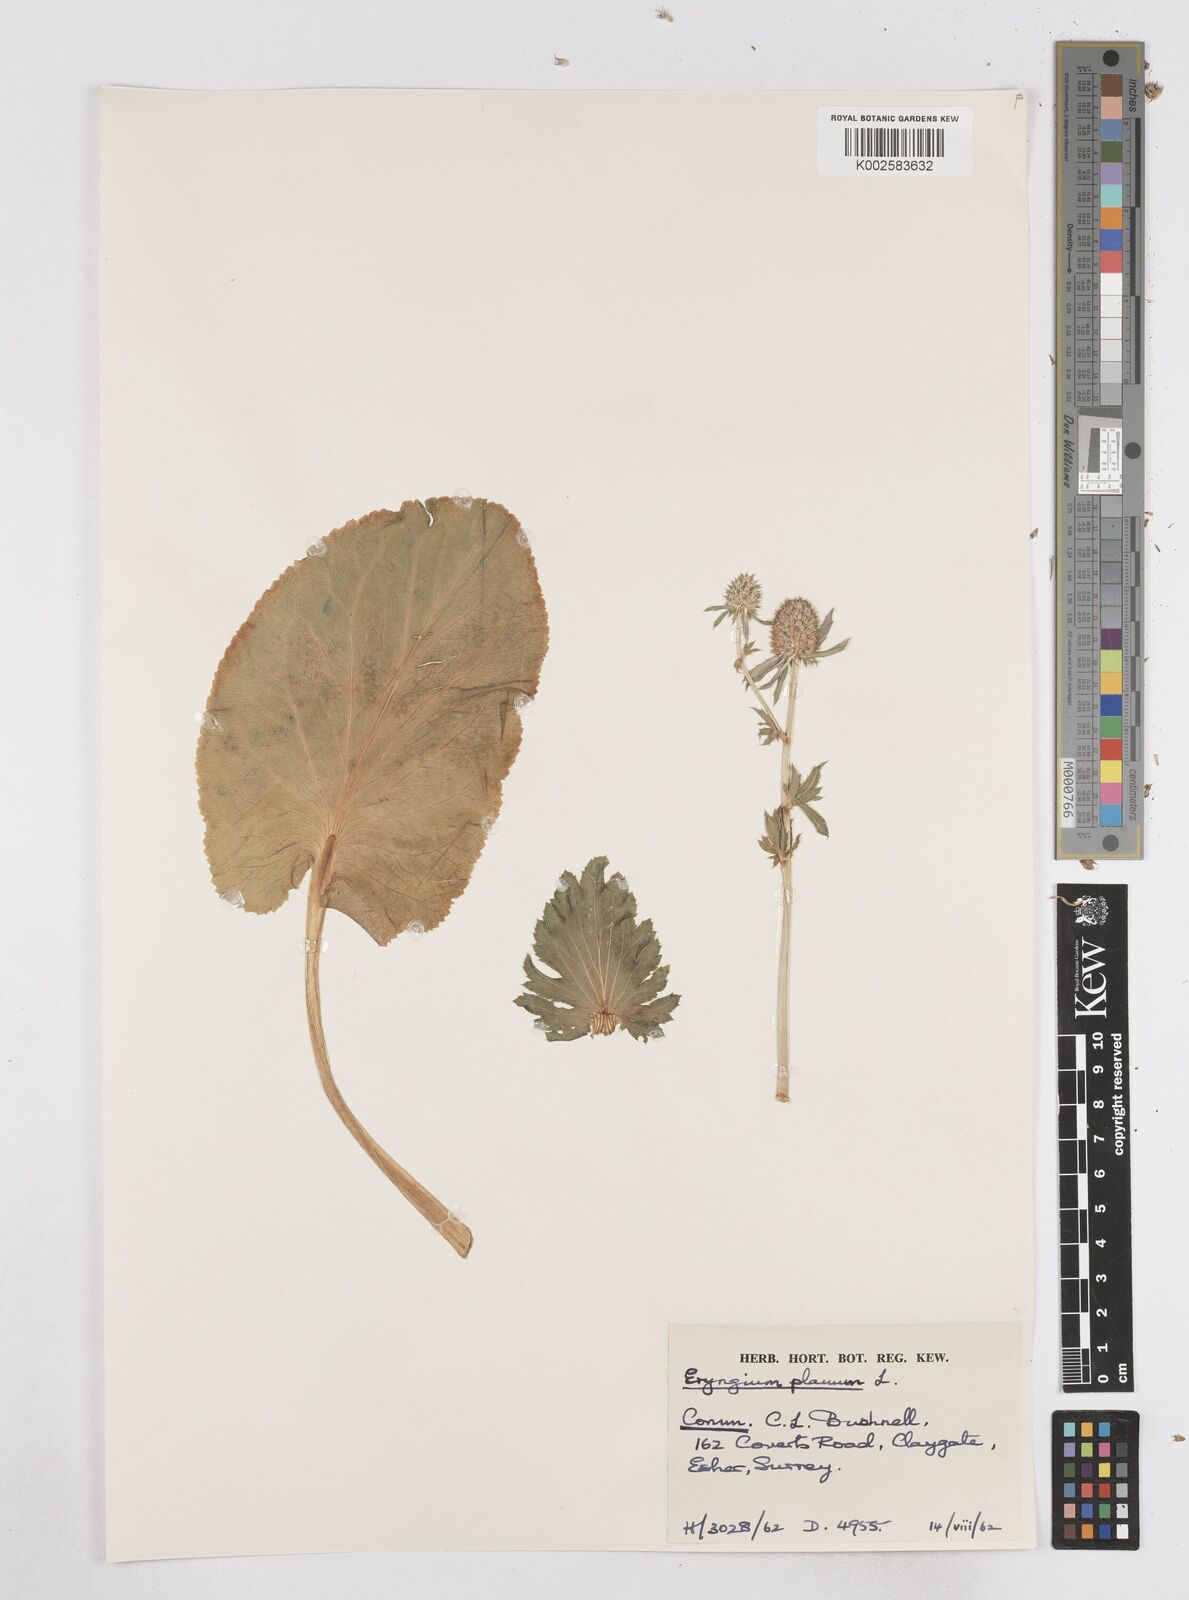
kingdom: Plantae
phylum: Tracheophyta
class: Magnoliopsida
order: Apiales
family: Apiaceae
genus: Eryngium
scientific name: Eryngium planum
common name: Blue eryngo
